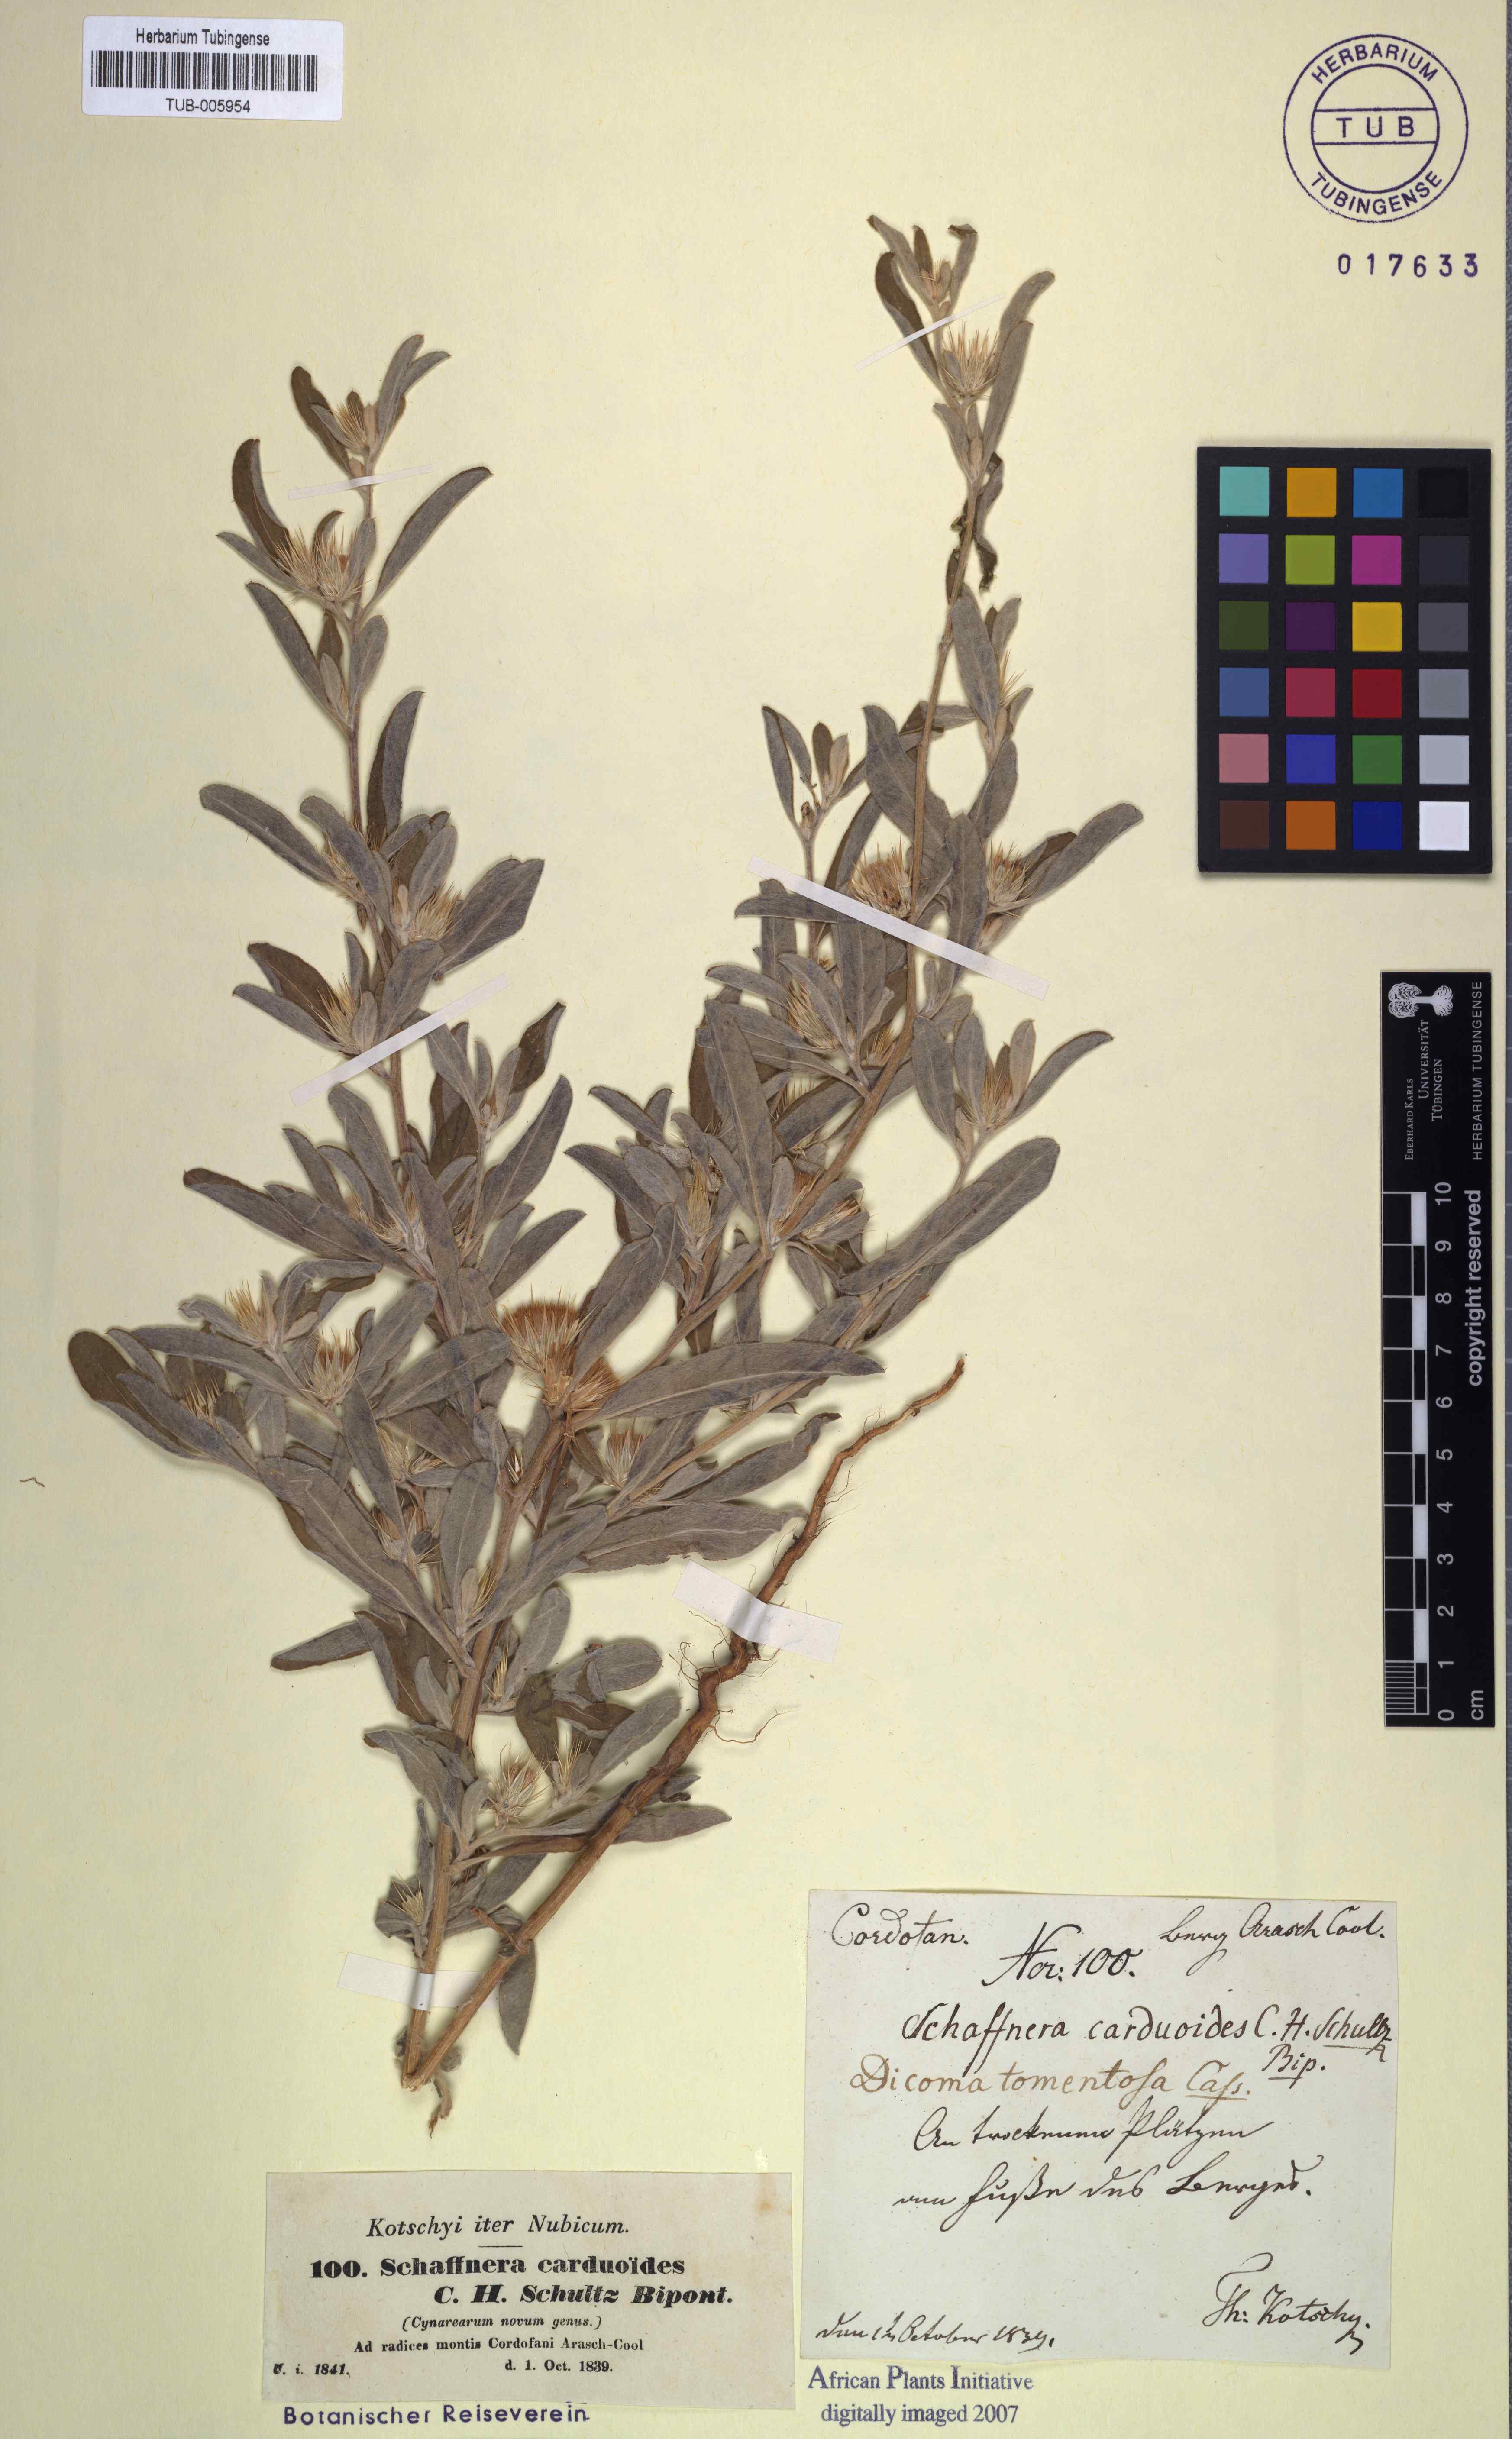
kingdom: Plantae
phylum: Tracheophyta
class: Magnoliopsida
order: Asterales
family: Asteraceae
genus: Dicoma
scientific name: Dicoma tomentosa
